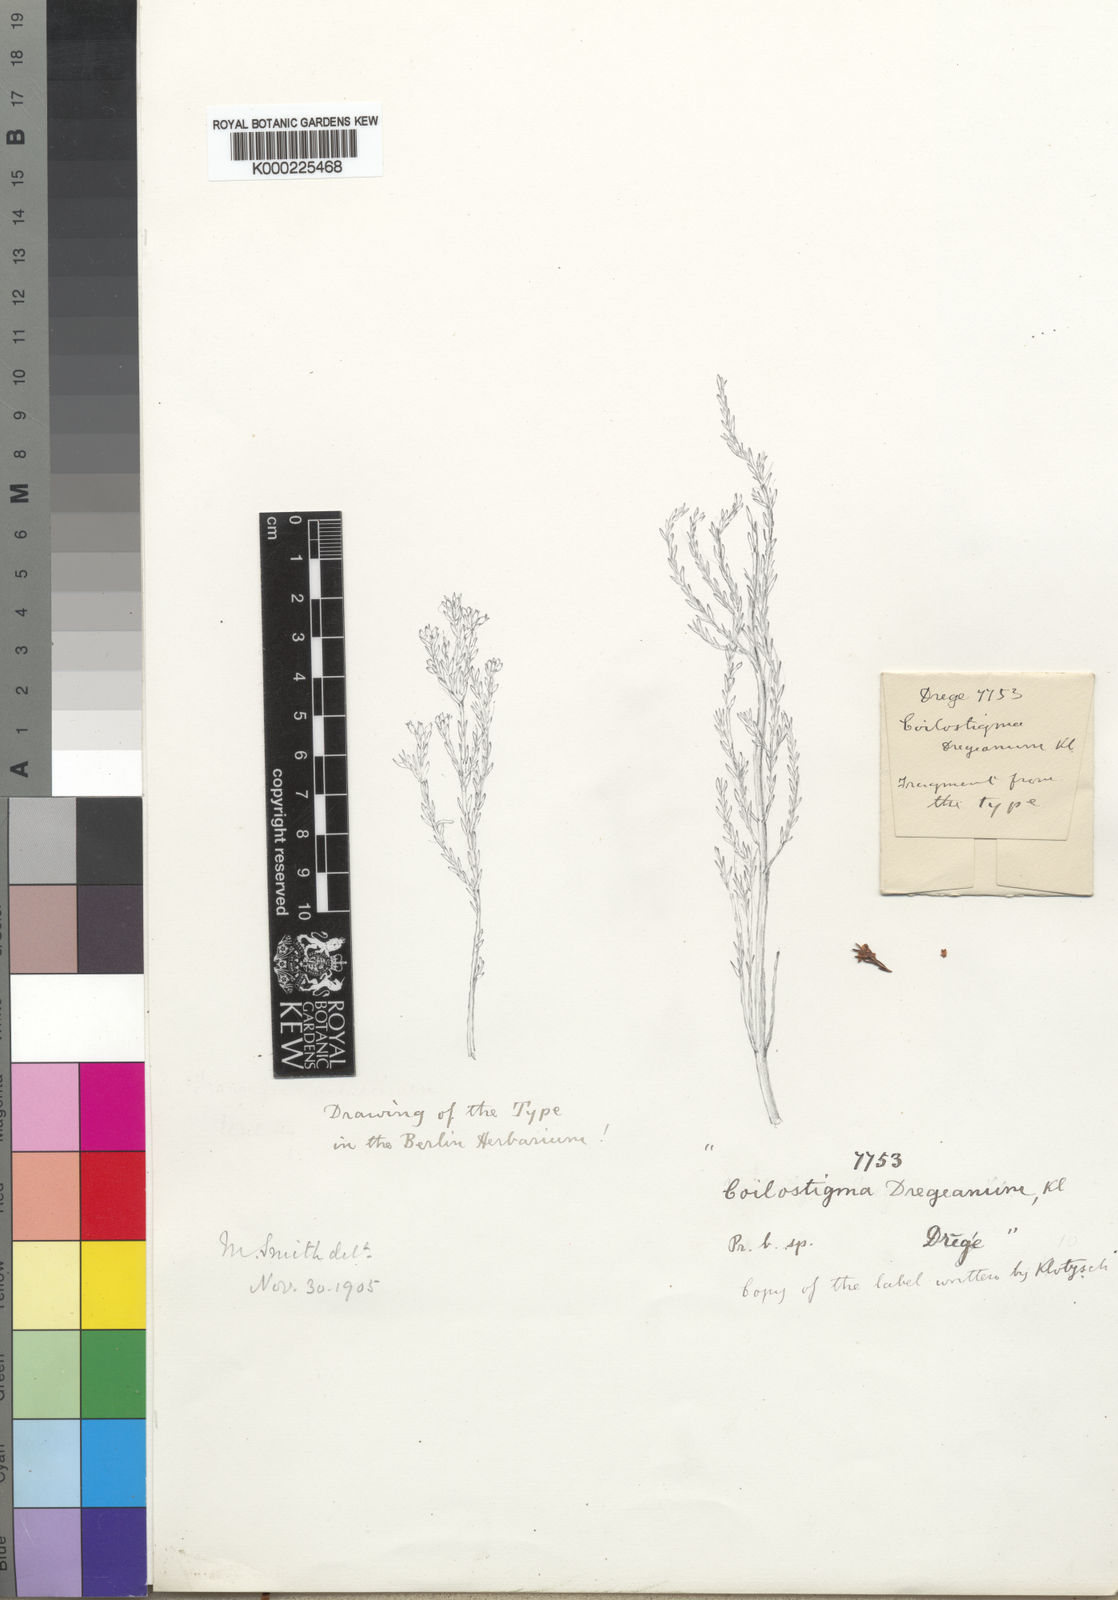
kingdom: Plantae
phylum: Tracheophyta
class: Magnoliopsida
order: Ericales
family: Ericaceae
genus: Erica
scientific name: Erica zeyheriana
